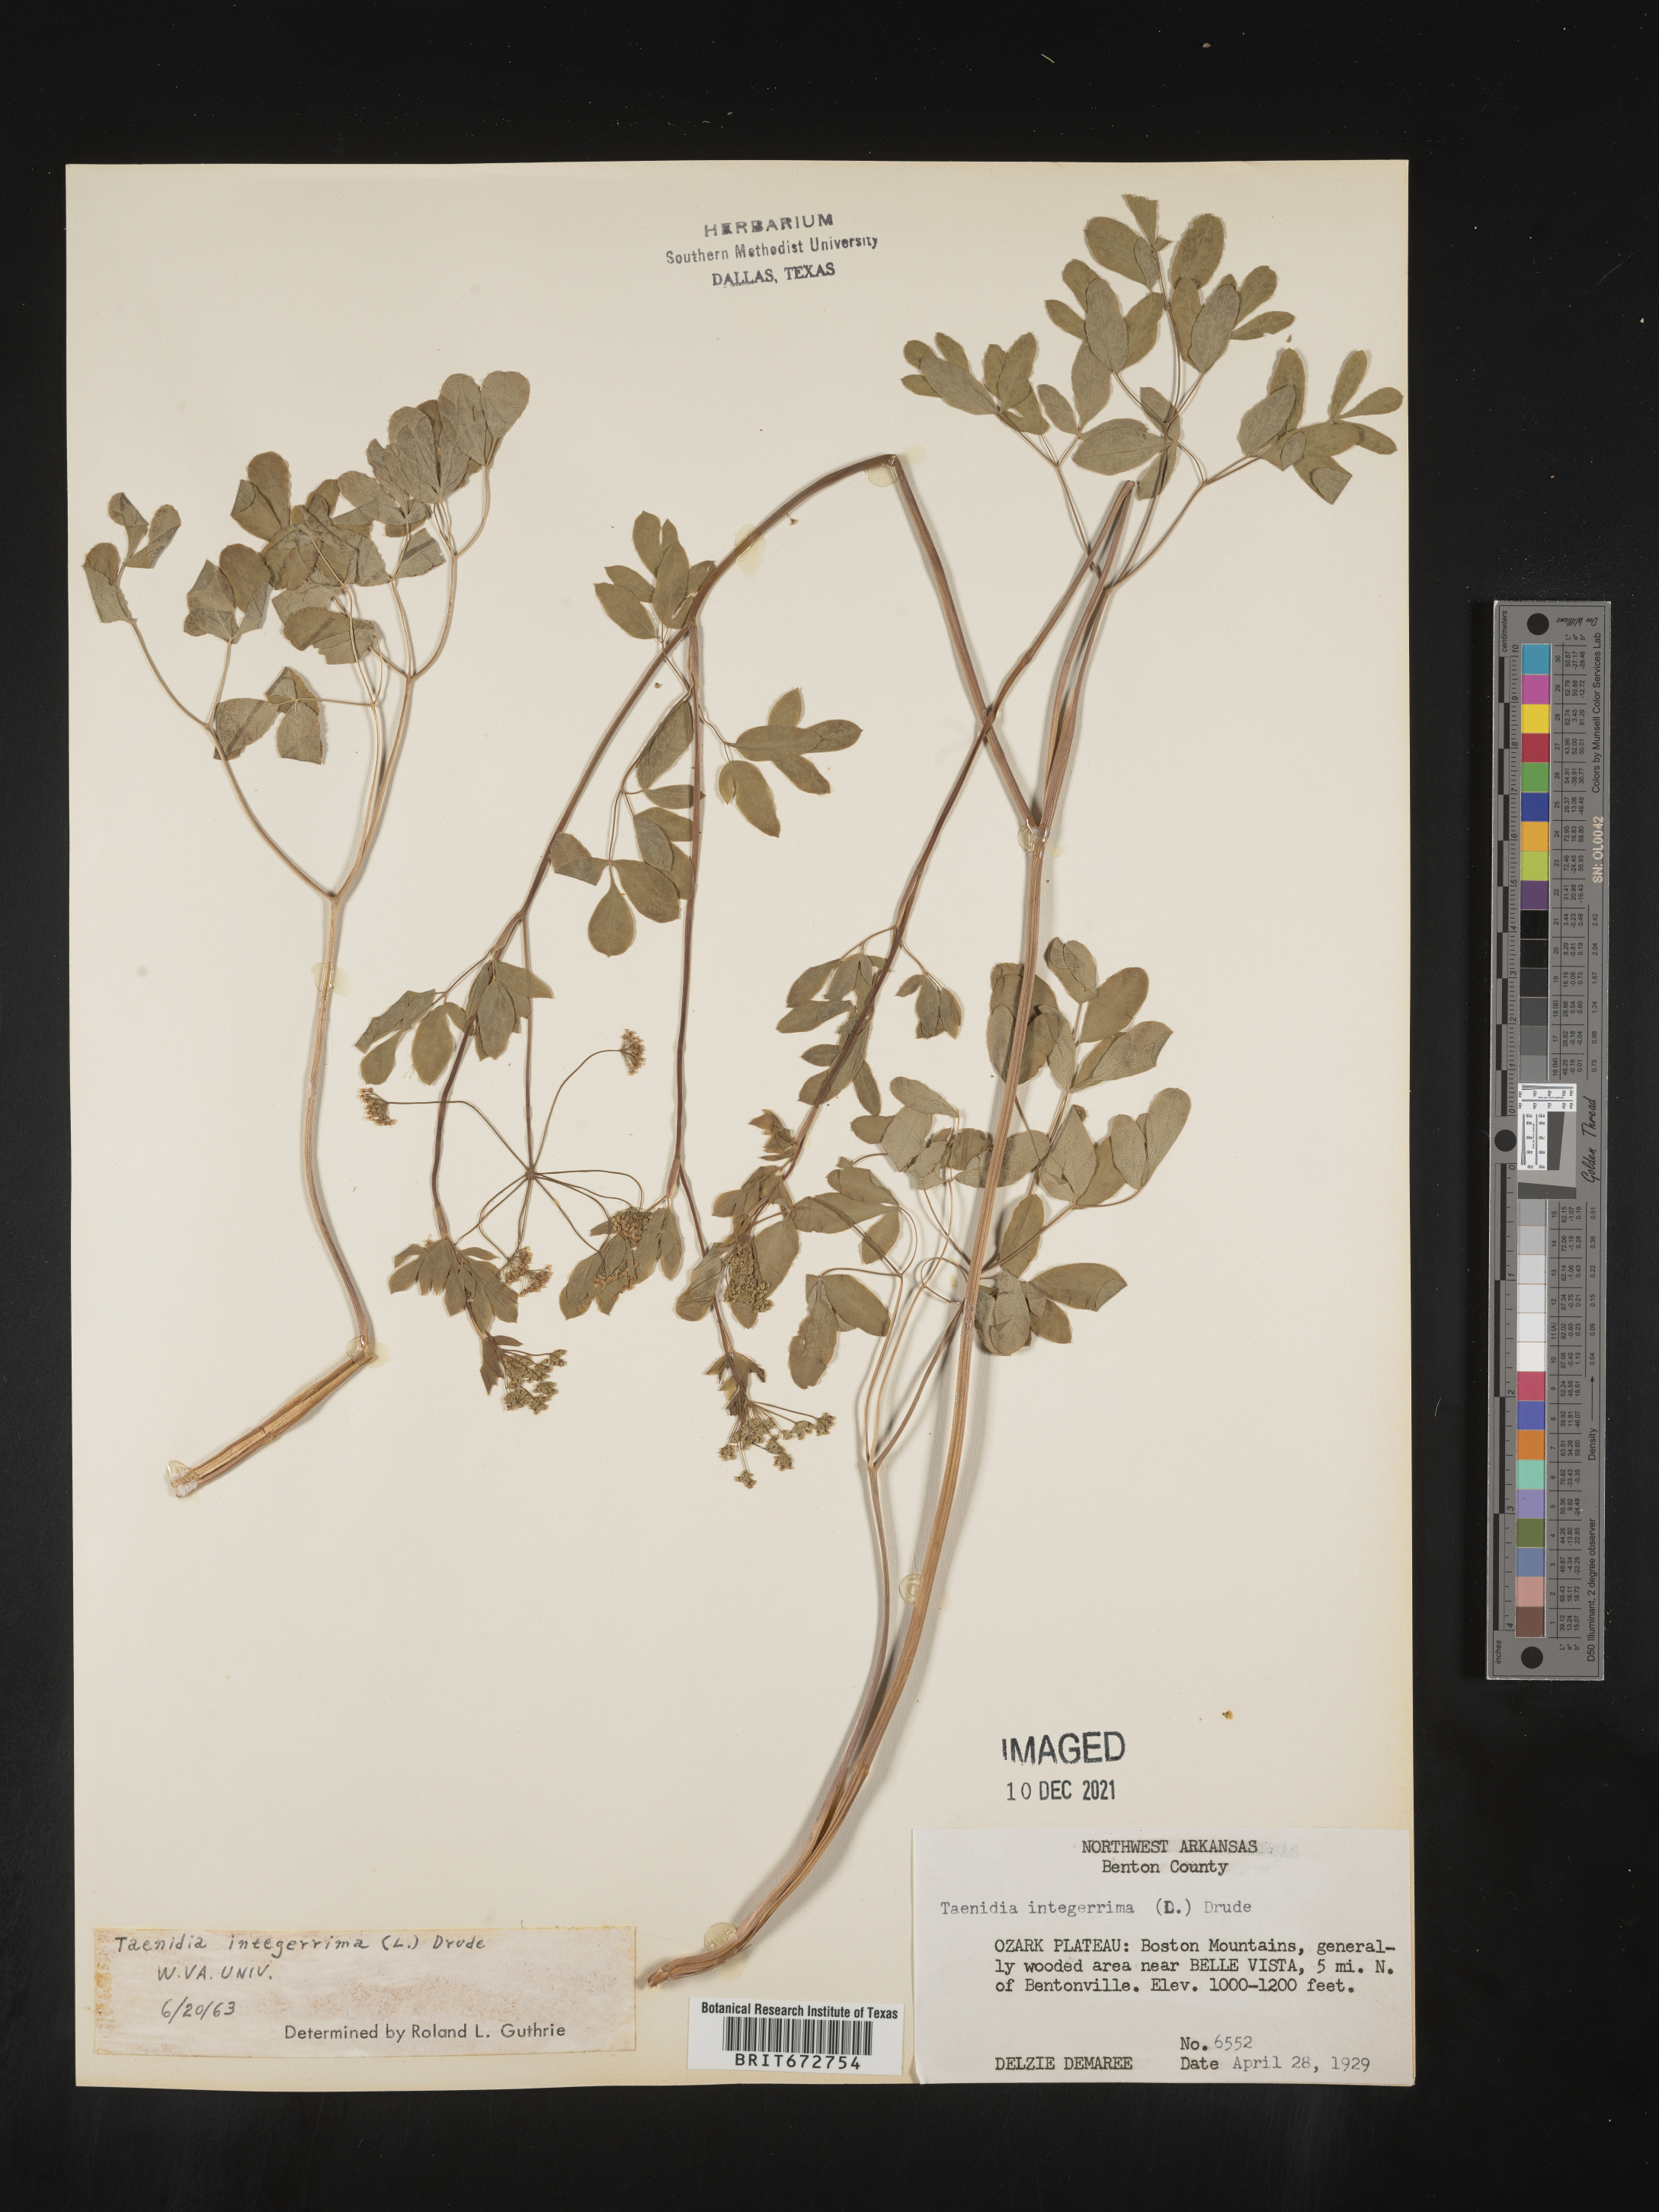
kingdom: Plantae
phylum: Tracheophyta
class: Magnoliopsida
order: Apiales
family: Apiaceae
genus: Taenidia
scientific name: Taenidia integerrima
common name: Golden alexander
